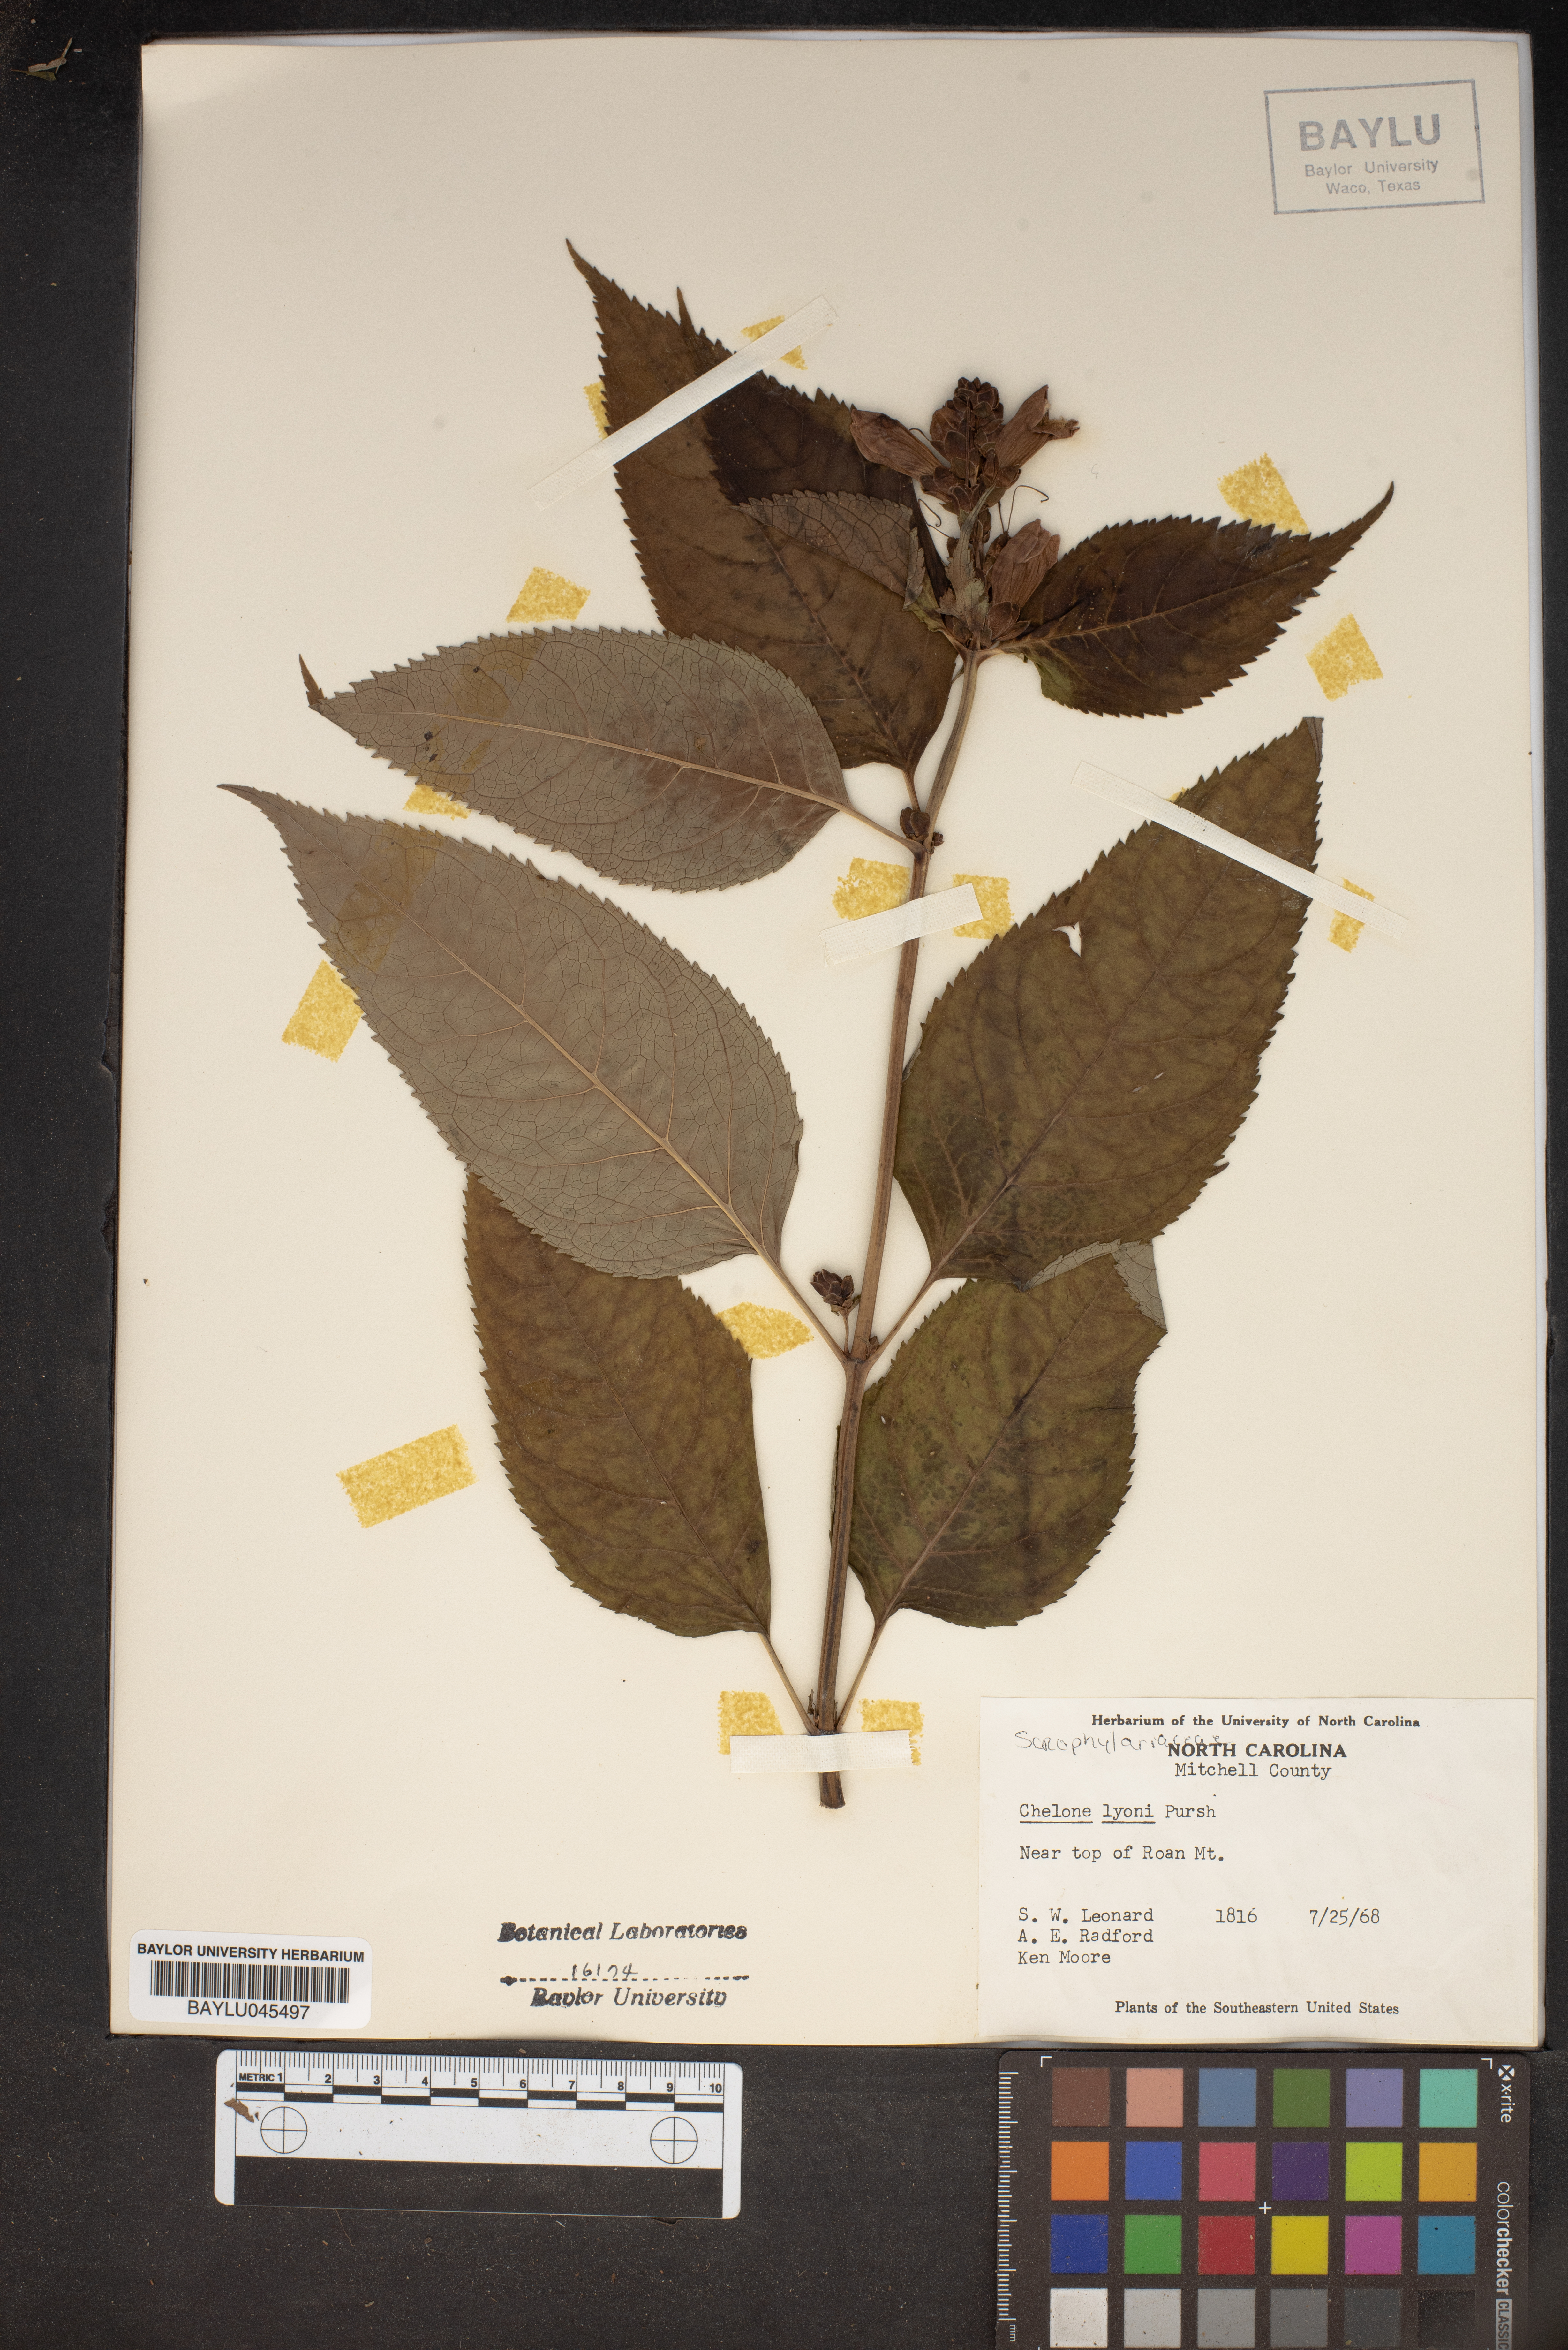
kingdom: Plantae
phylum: Tracheophyta
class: Magnoliopsida
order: Lamiales
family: Plantaginaceae
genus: Chelone
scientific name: Chelone lyonii
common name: Pink turtlehead
